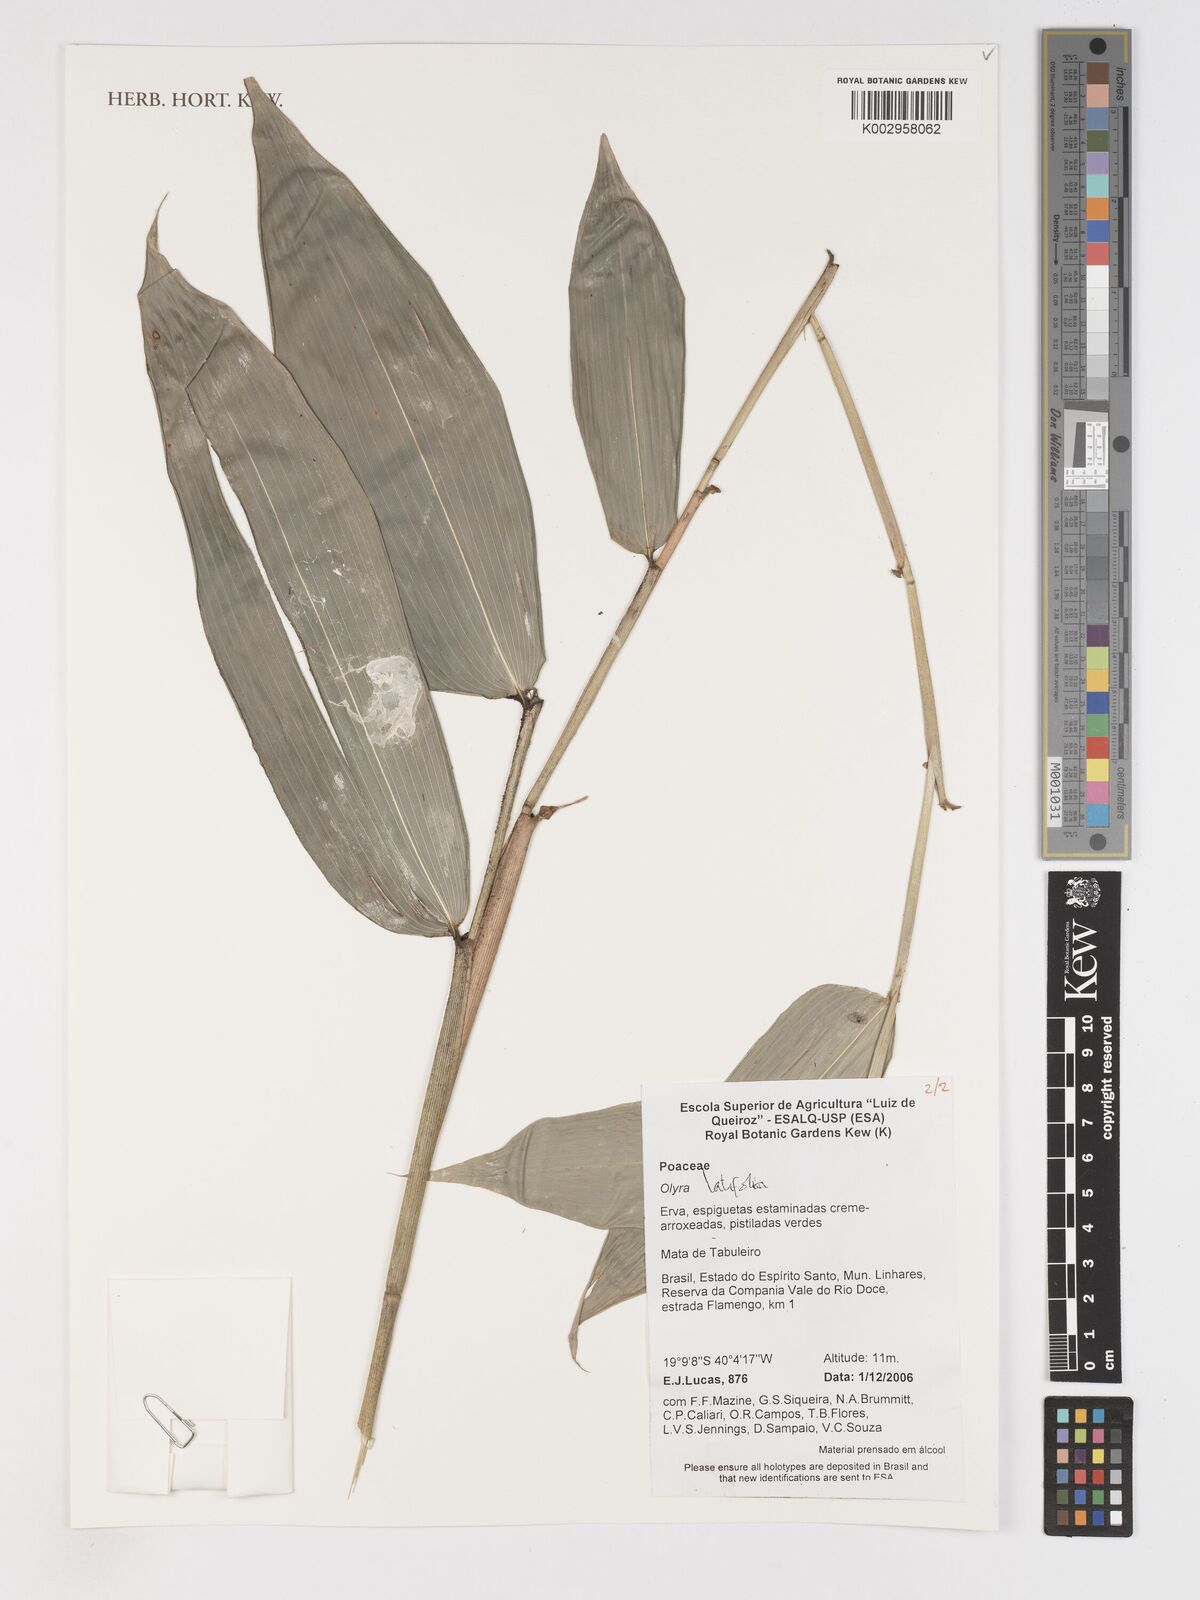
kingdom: Plantae
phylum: Tracheophyta
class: Liliopsida
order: Poales
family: Poaceae
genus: Olyra
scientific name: Olyra latifolia
